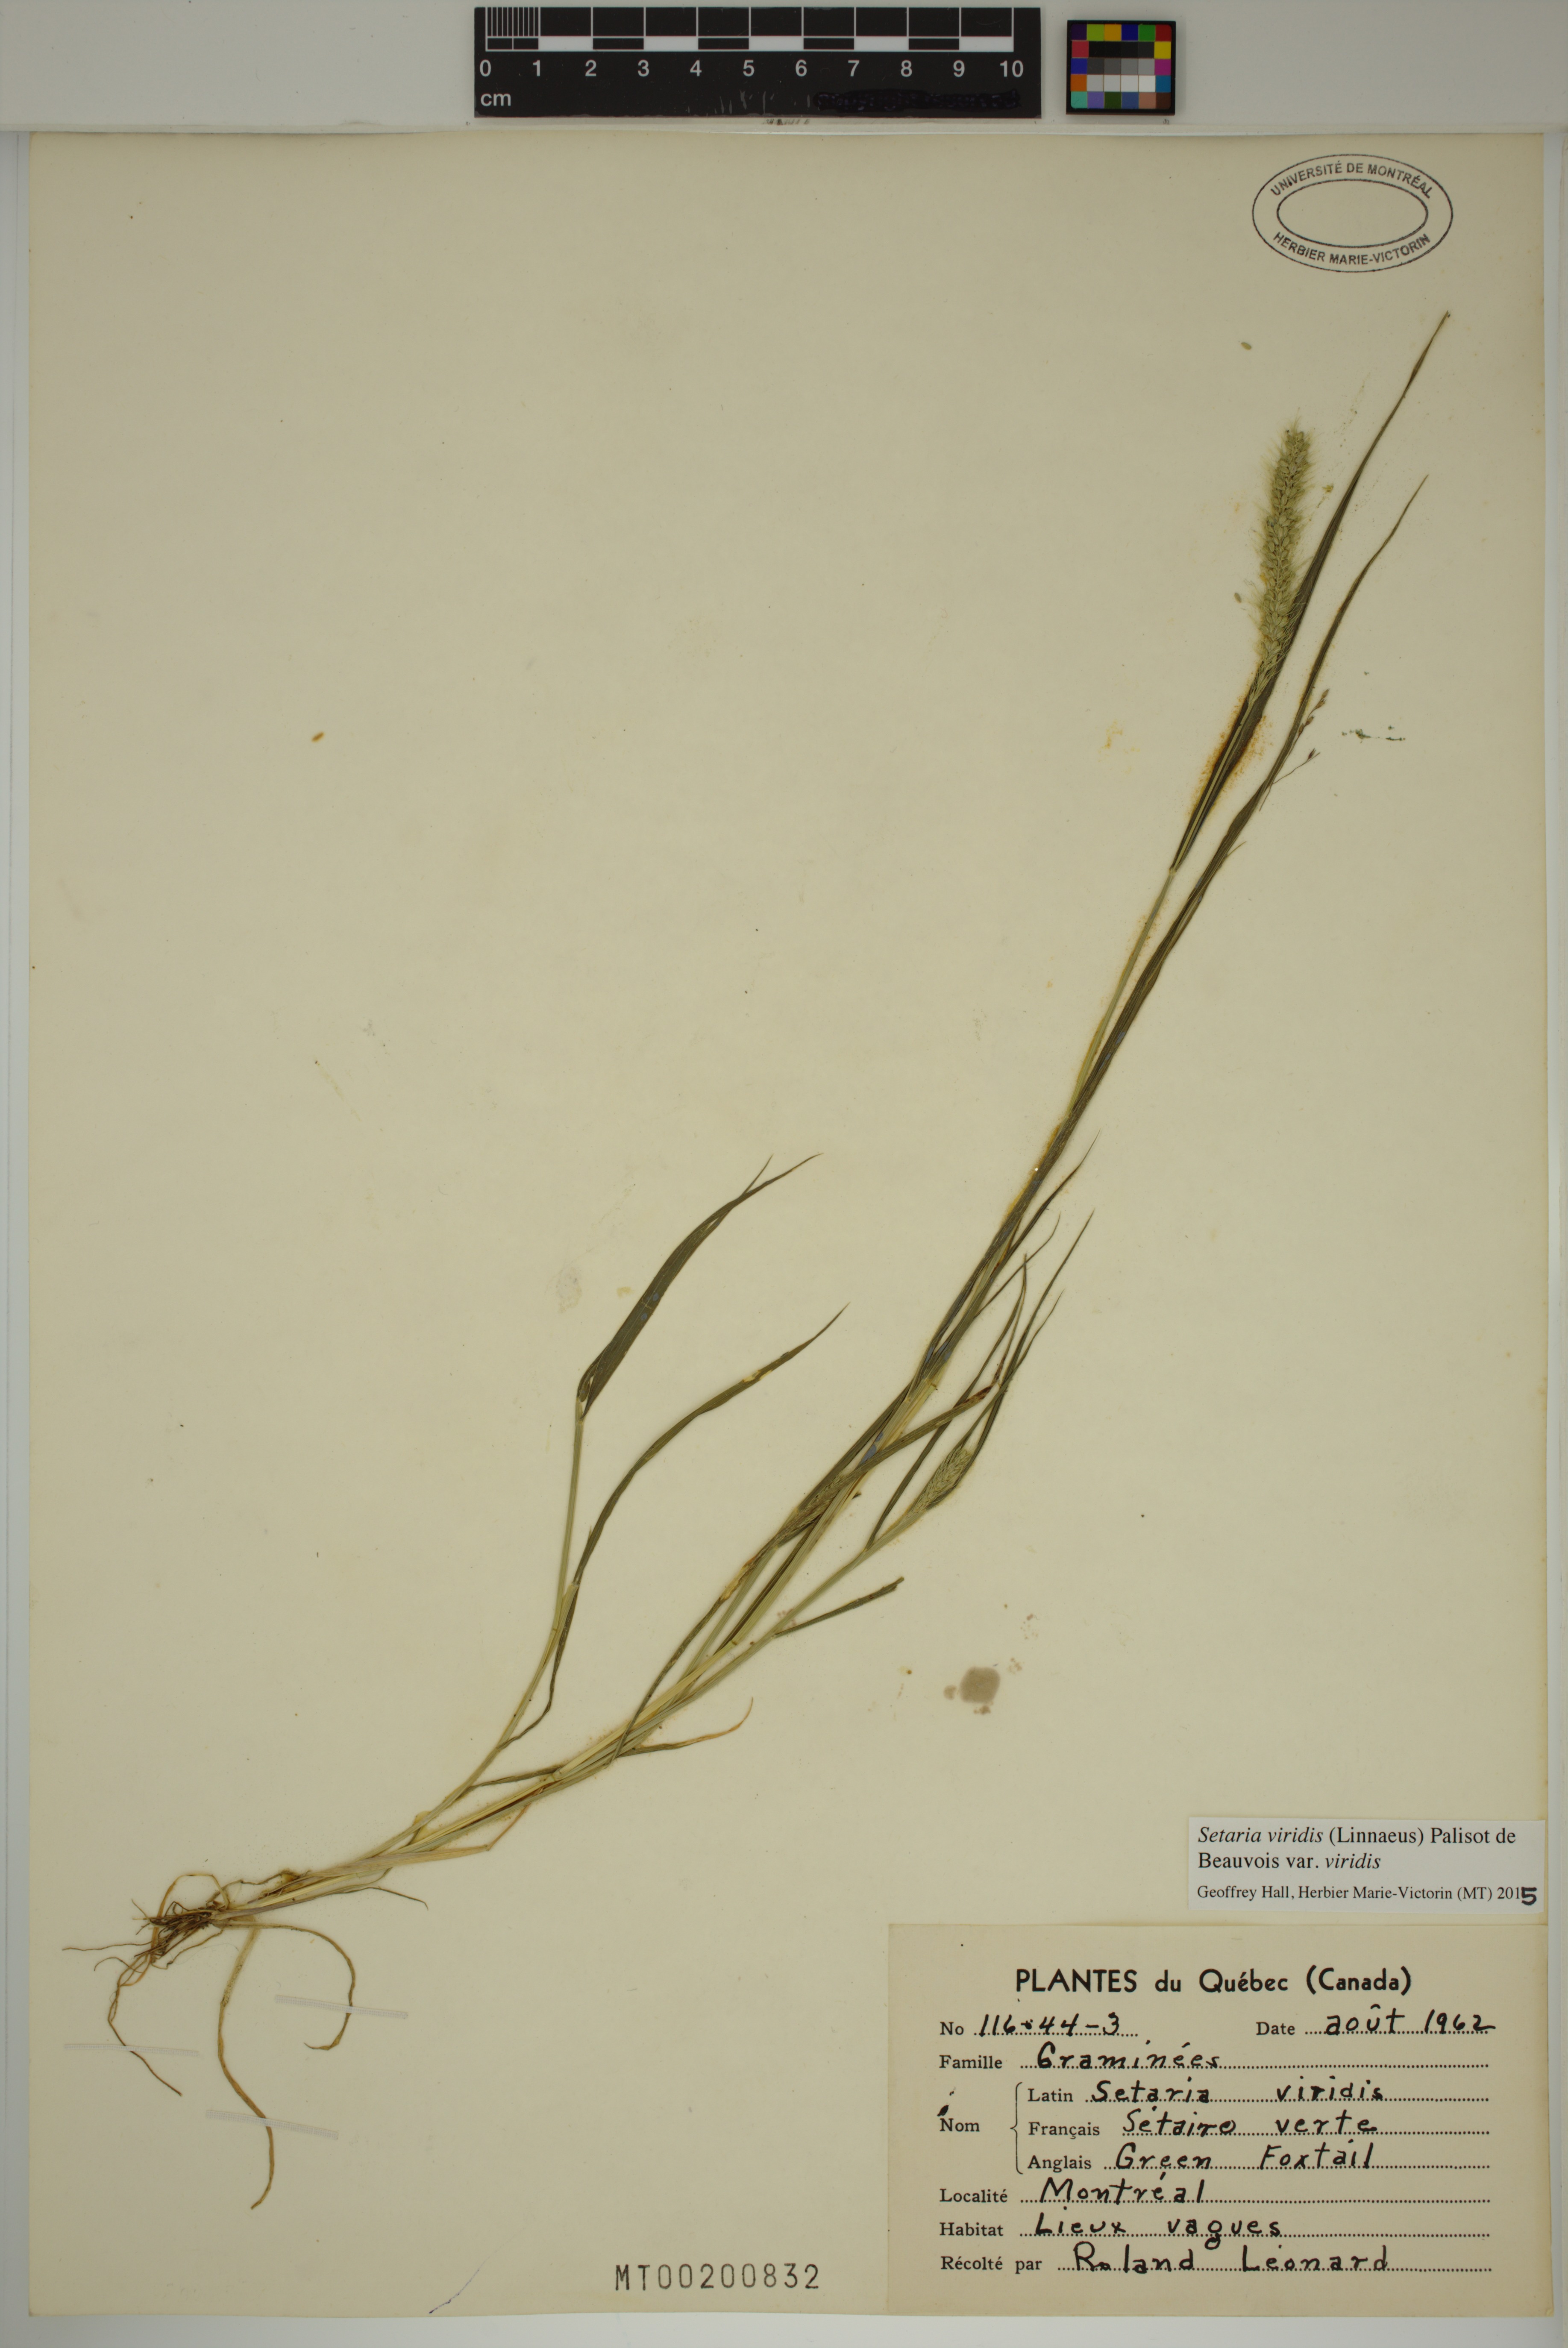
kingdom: Plantae
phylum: Tracheophyta
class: Liliopsida
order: Poales
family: Poaceae
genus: Setaria
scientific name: Setaria viridis
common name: Green bristlegrass
